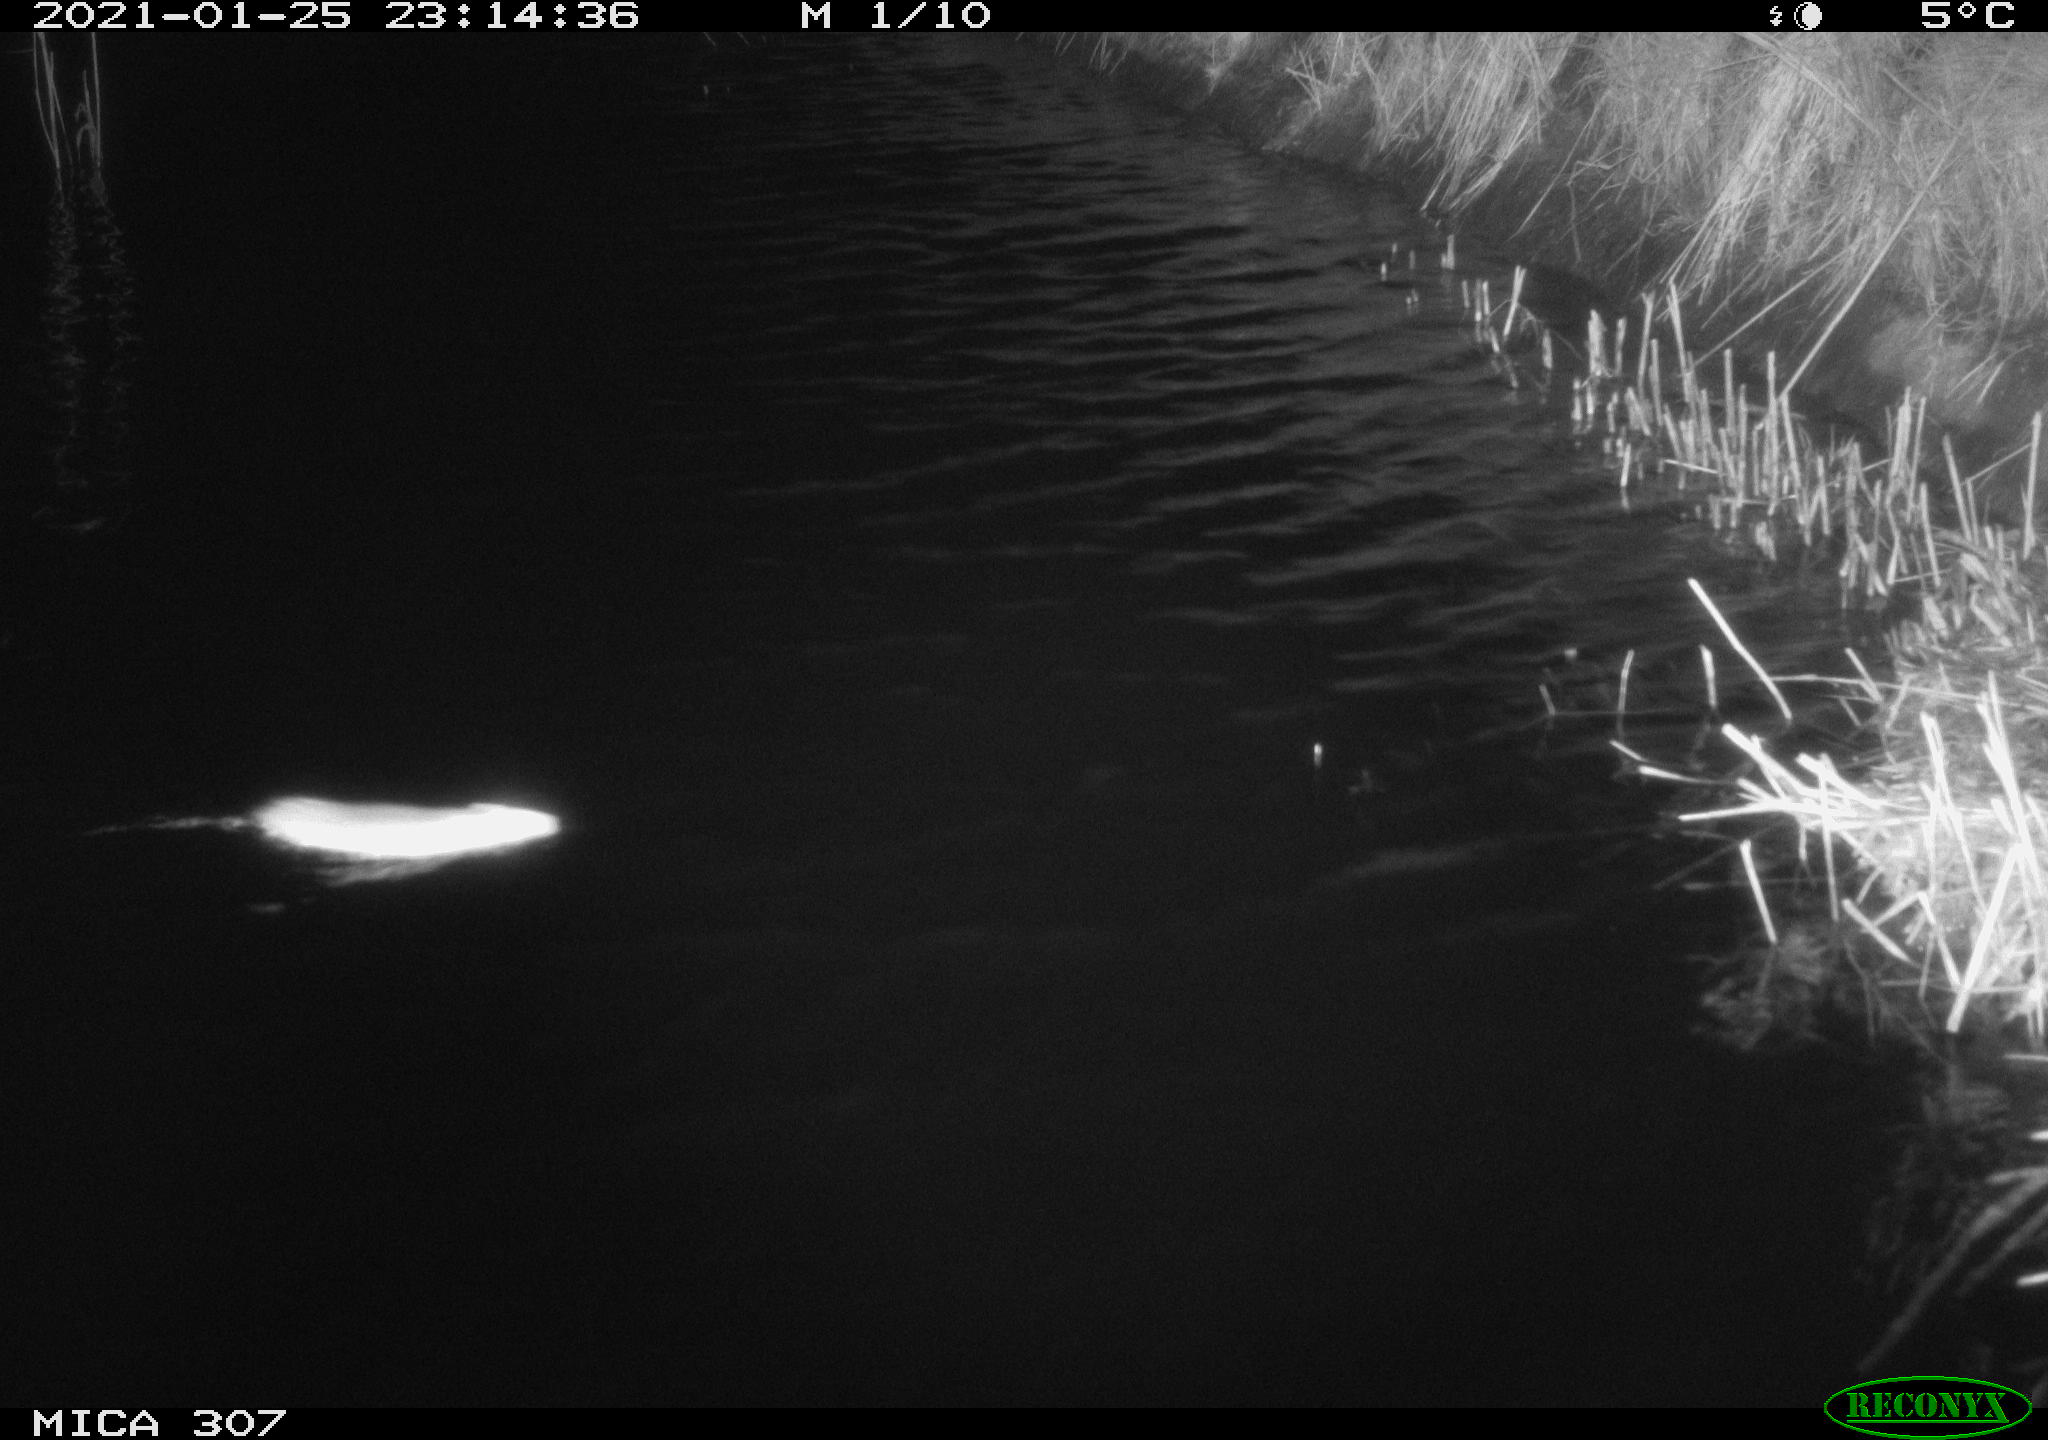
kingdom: Animalia
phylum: Chordata
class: Mammalia
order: Rodentia
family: Muridae
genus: Rattus
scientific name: Rattus norvegicus
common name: Brown rat
